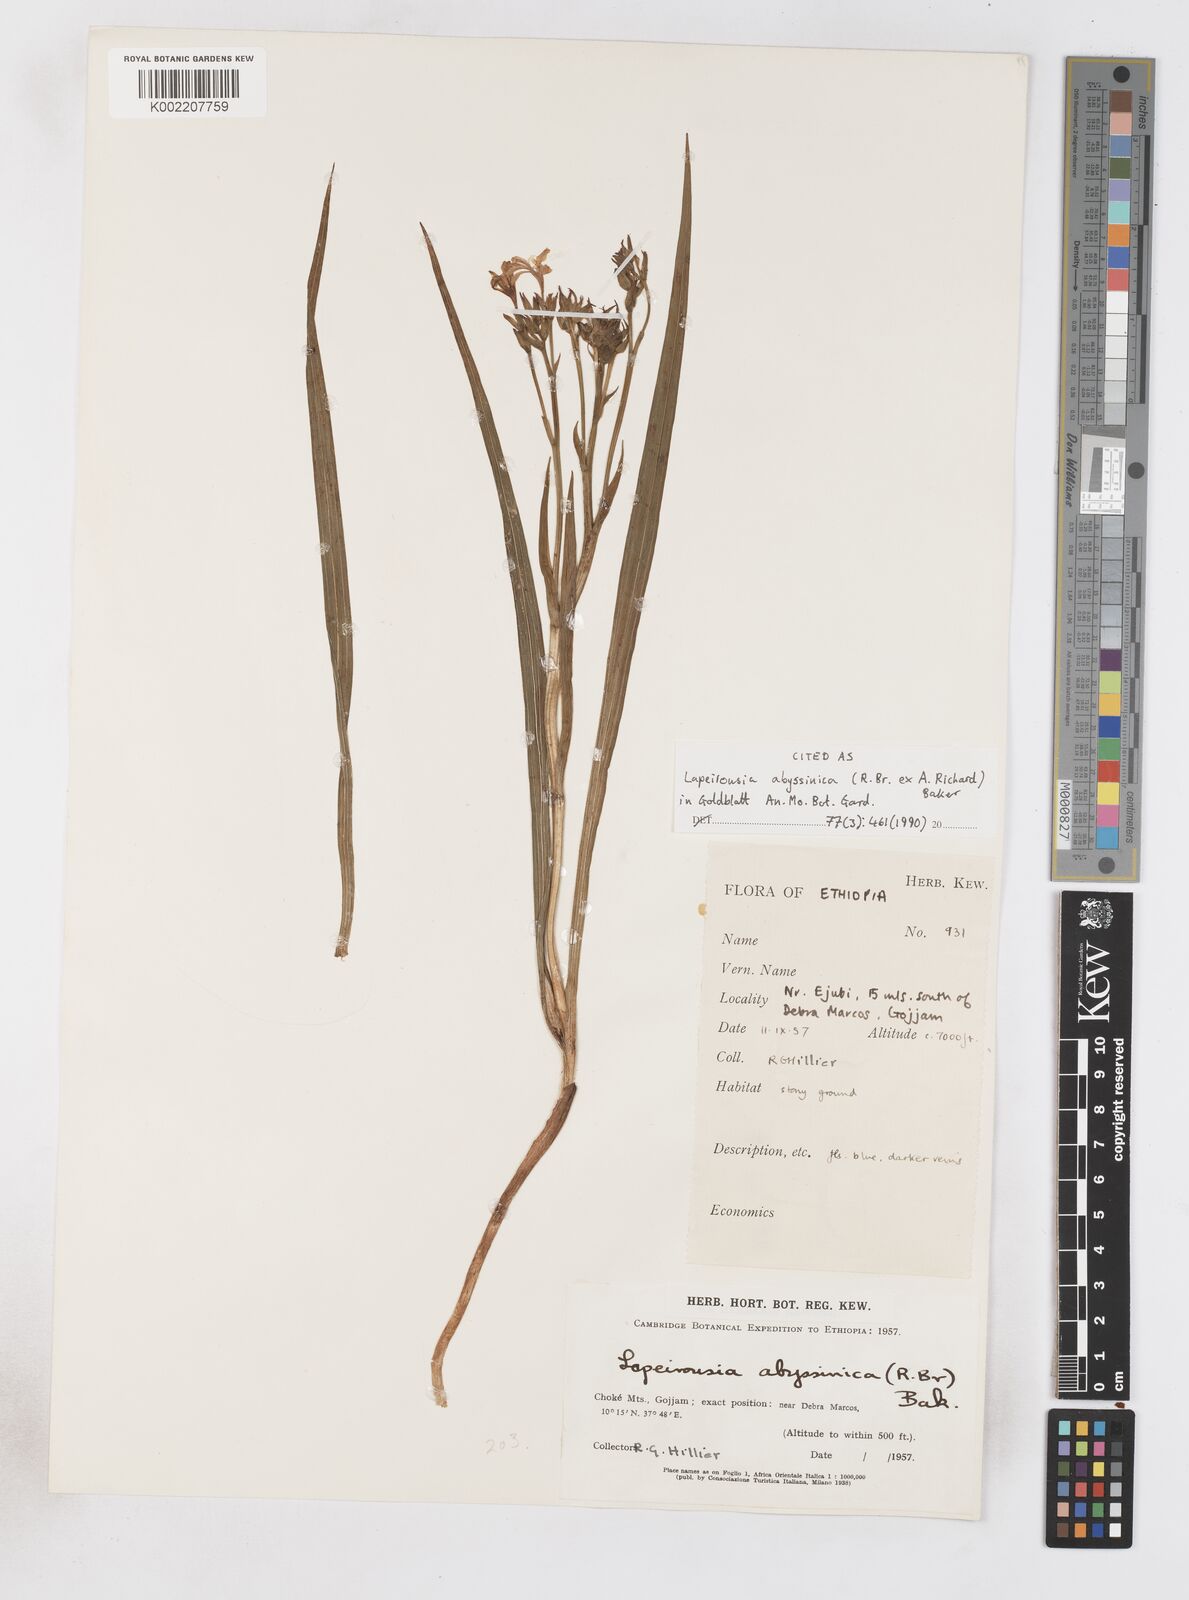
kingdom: Plantae
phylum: Tracheophyta
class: Liliopsida
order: Asparagales
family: Iridaceae
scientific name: Iridaceae
